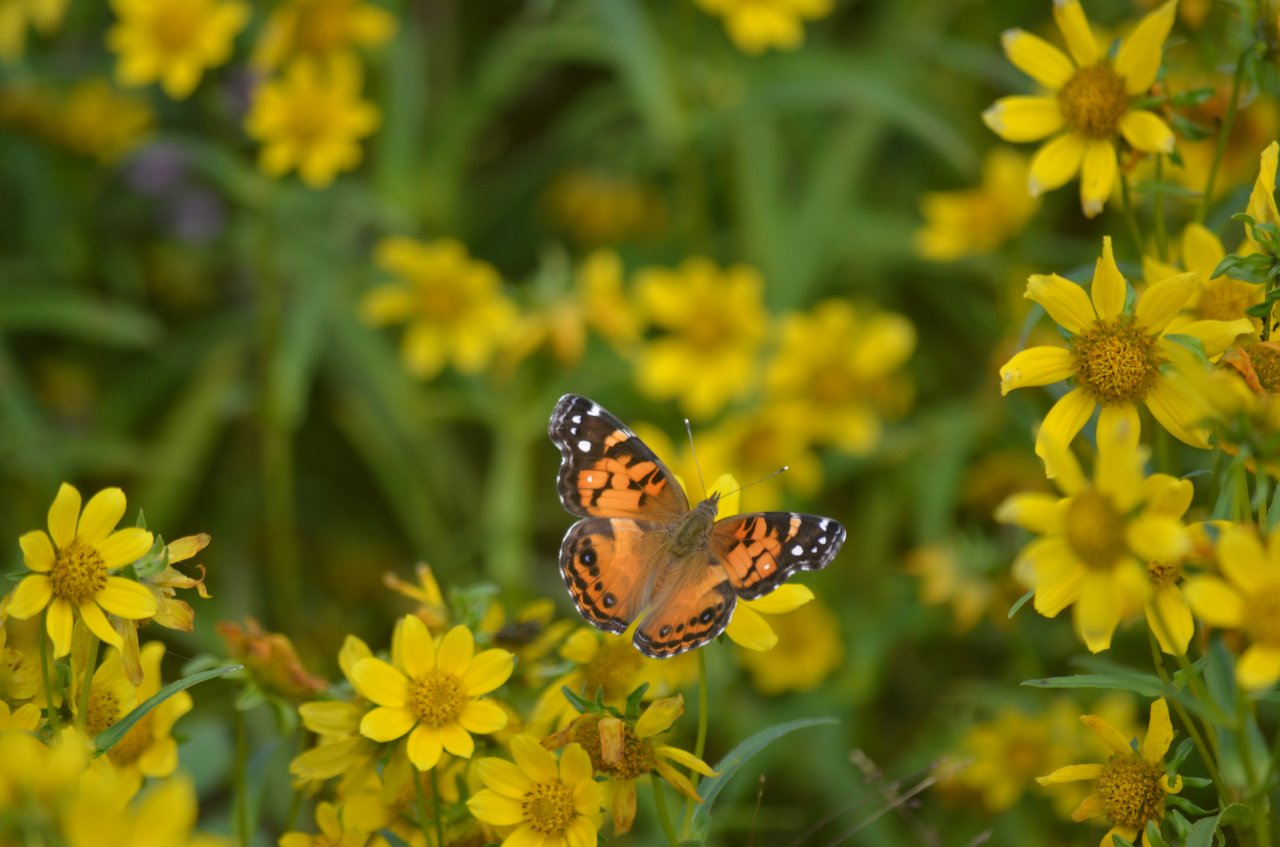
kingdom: Animalia
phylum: Arthropoda
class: Insecta
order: Lepidoptera
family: Nymphalidae
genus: Vanessa
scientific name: Vanessa virginiensis
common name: American Lady
